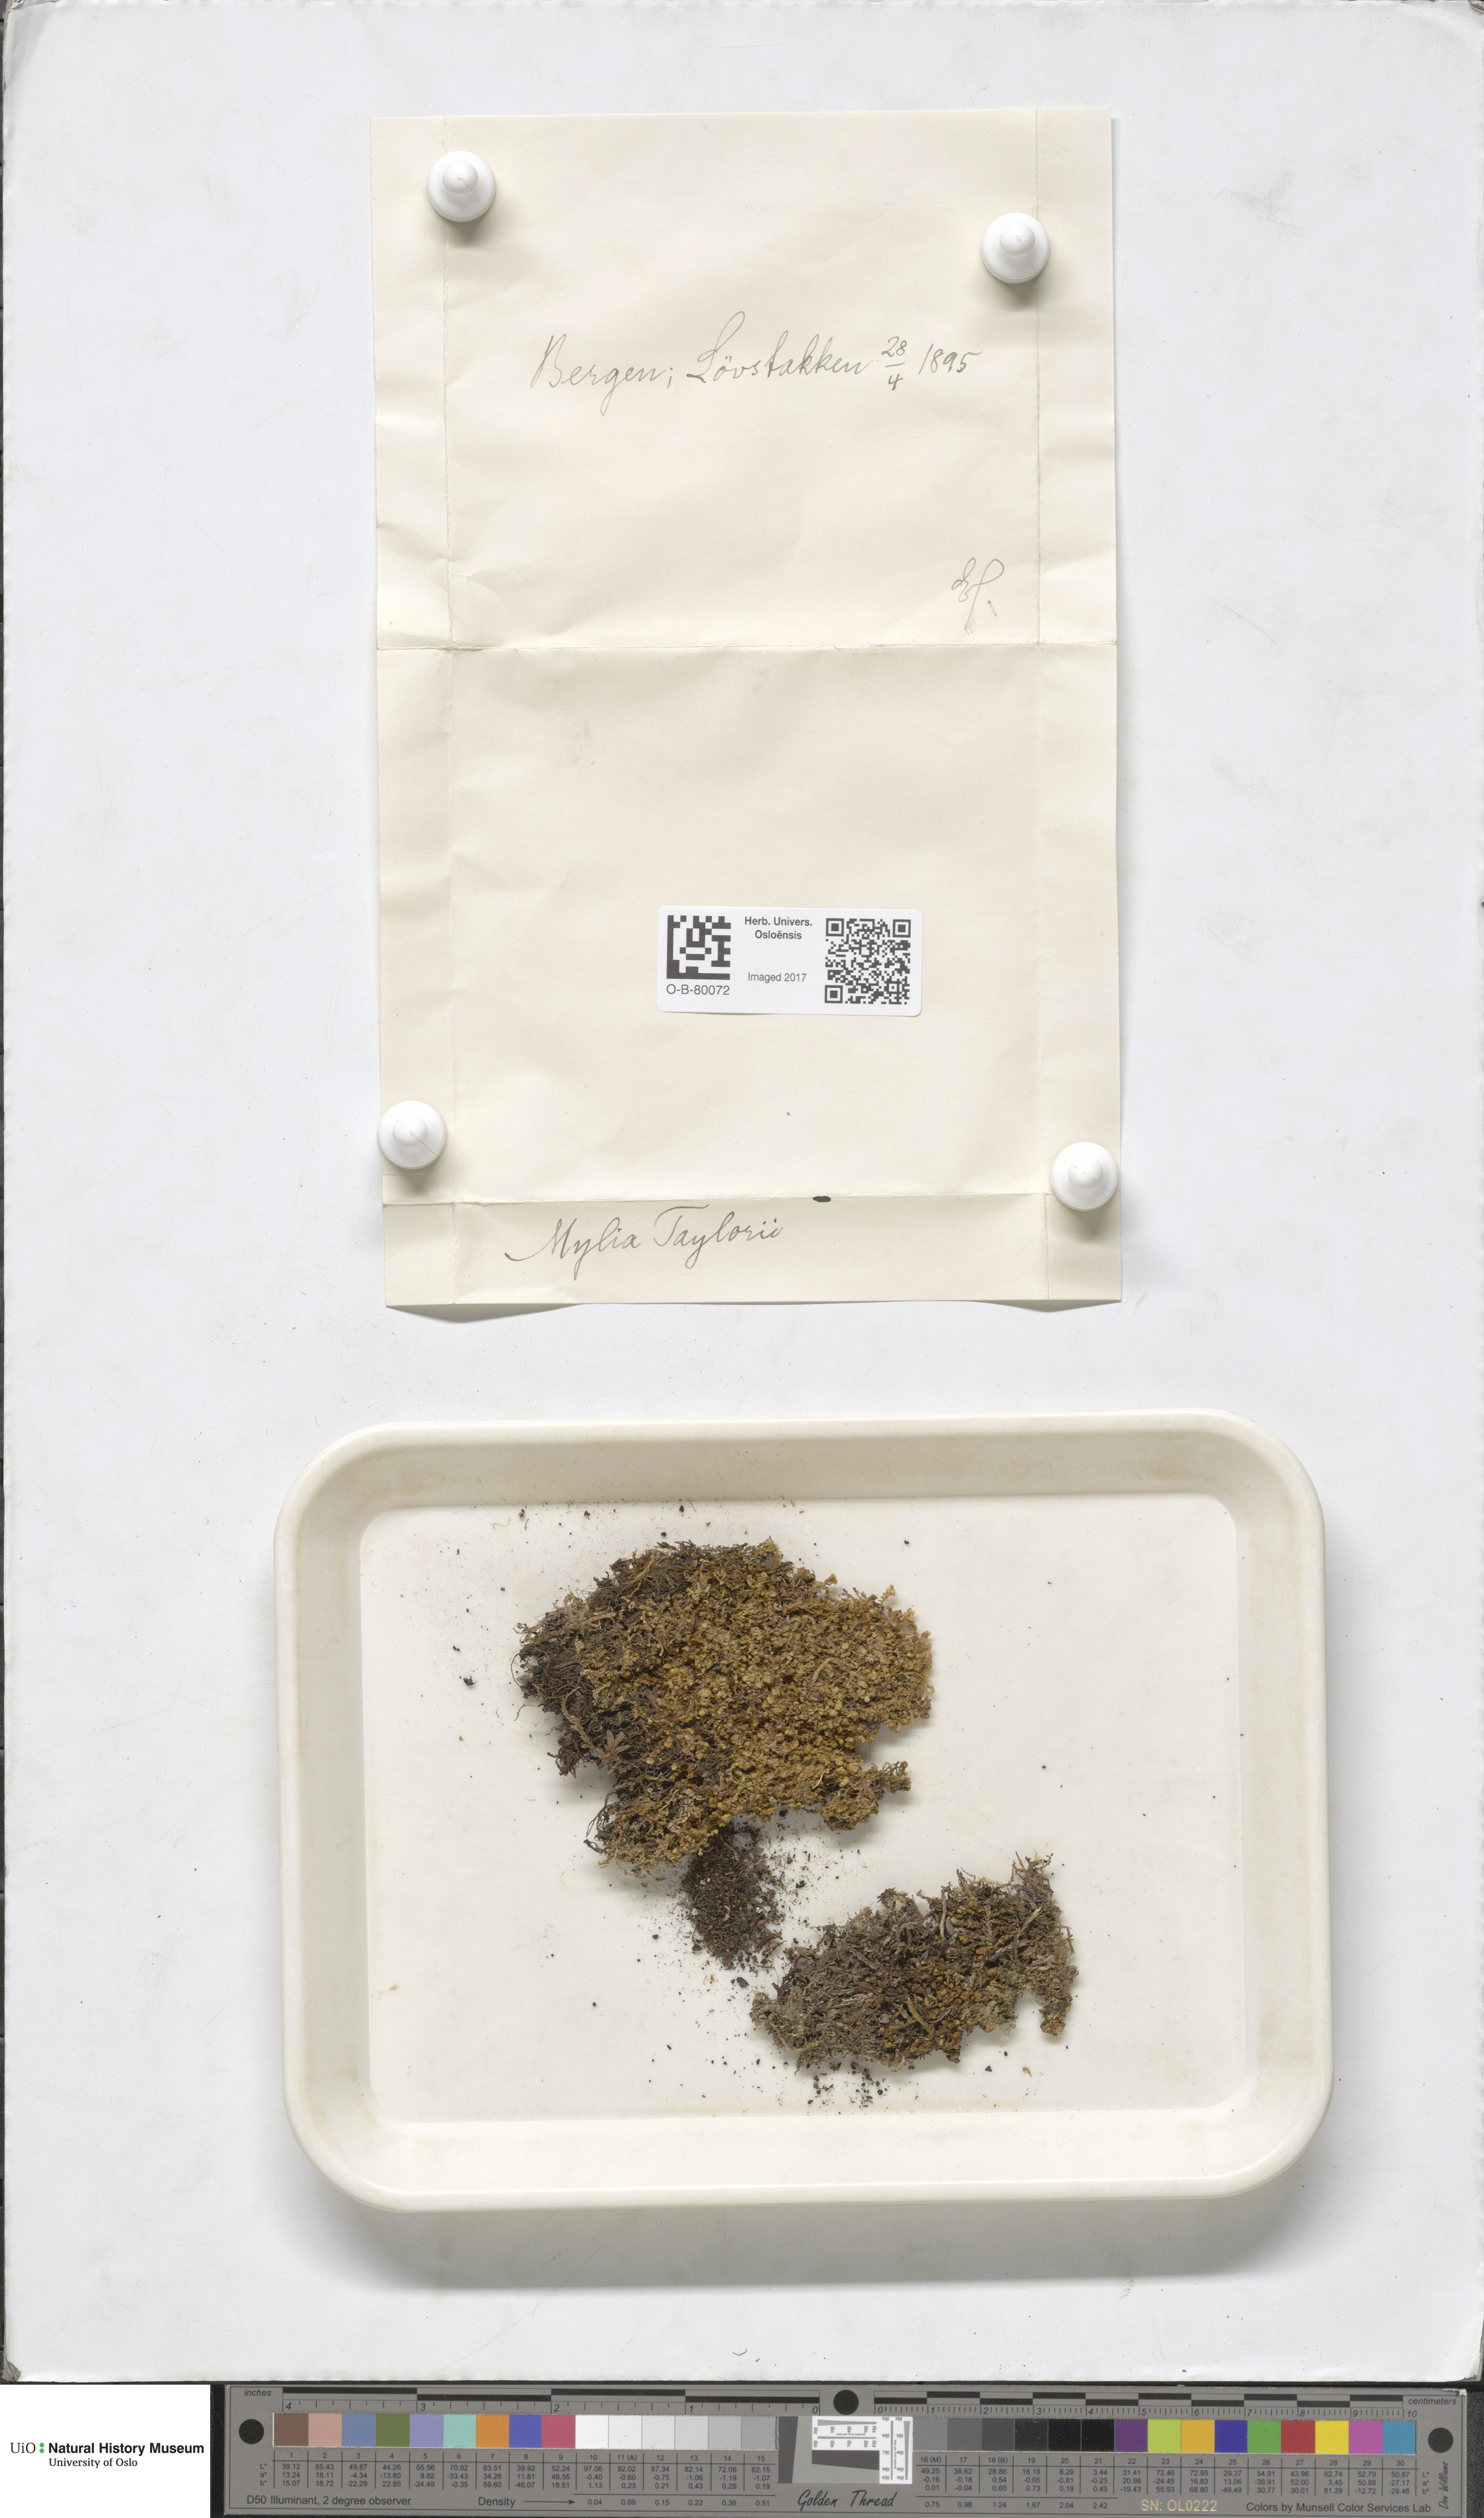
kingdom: Plantae
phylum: Marchantiophyta
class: Jungermanniopsida
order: Jungermanniales
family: Myliaceae
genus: Mylia
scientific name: Mylia taylorii
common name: Taylor s flapwort
